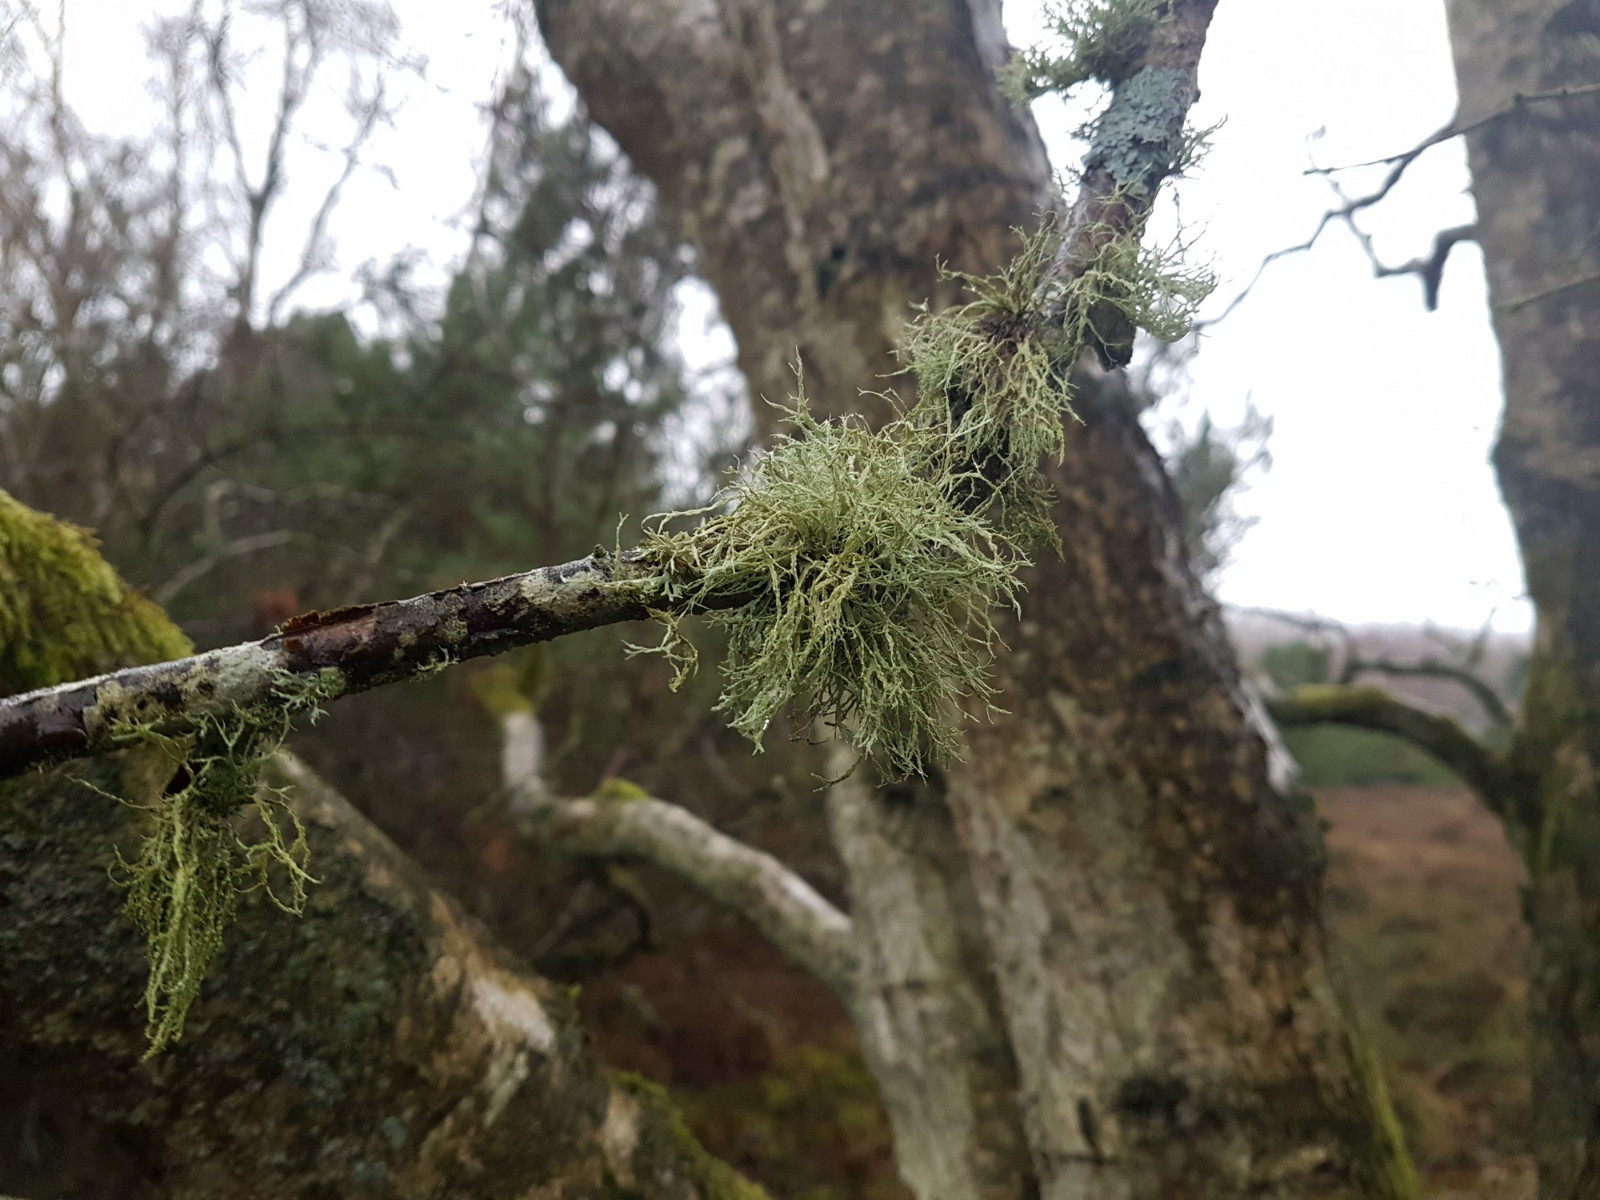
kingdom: Fungi
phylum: Ascomycota
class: Lecanoromycetes
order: Lecanorales
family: Ramalinaceae
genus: Ramalina
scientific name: Ramalina farinacea
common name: melet grenlav
